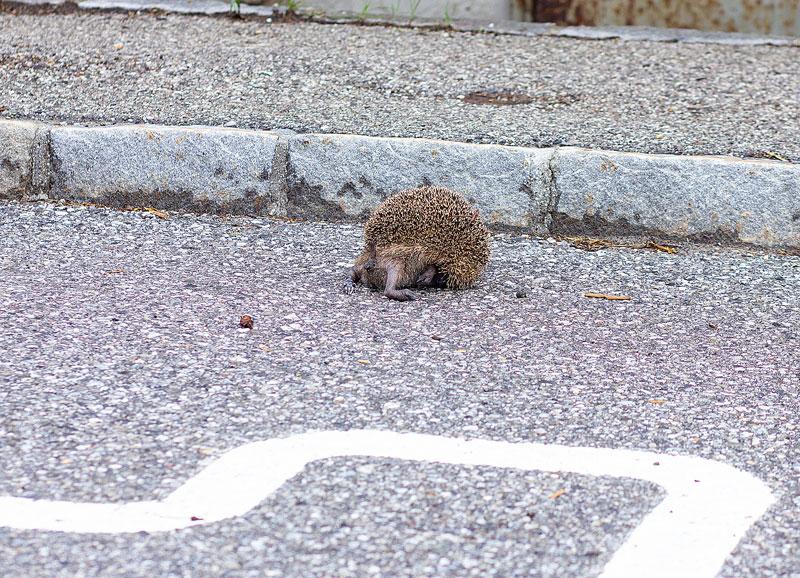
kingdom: Animalia
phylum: Chordata
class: Mammalia
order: Erinaceomorpha
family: Erinaceidae
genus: Erinaceus
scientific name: Erinaceus
